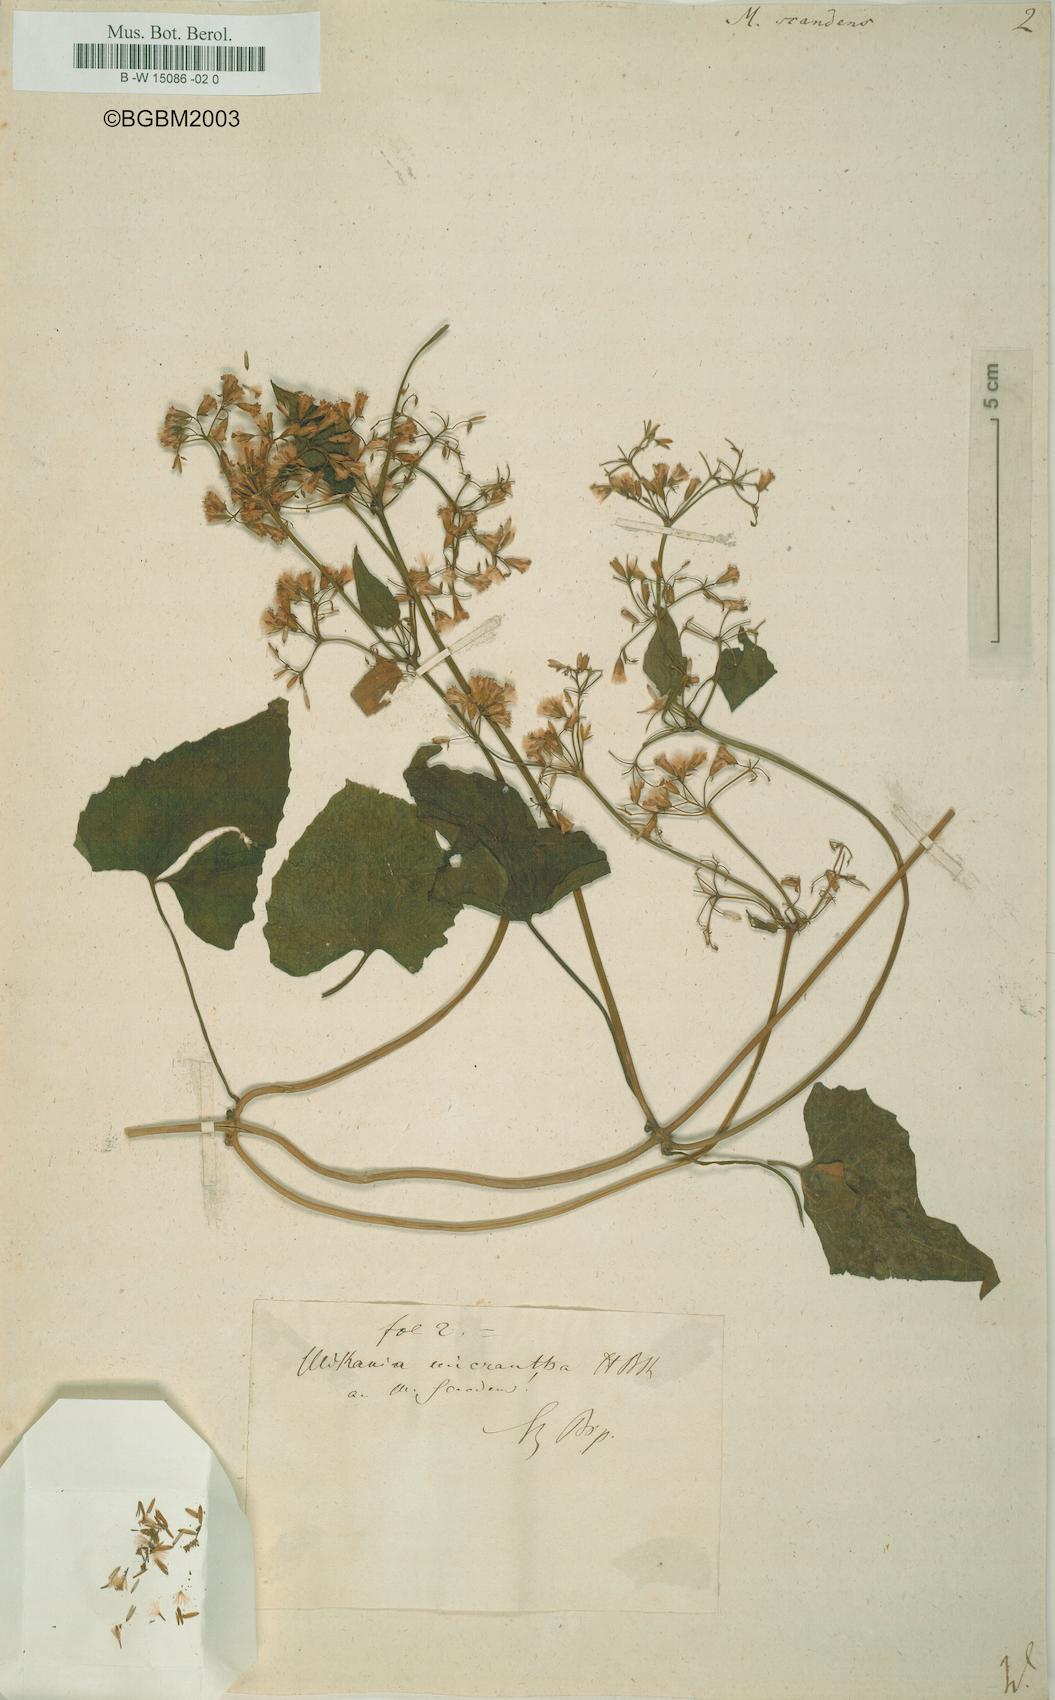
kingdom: Plantae
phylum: Tracheophyta
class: Magnoliopsida
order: Asterales
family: Asteraceae
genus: Mikania
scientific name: Mikania scandens
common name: Climbing hempvine
